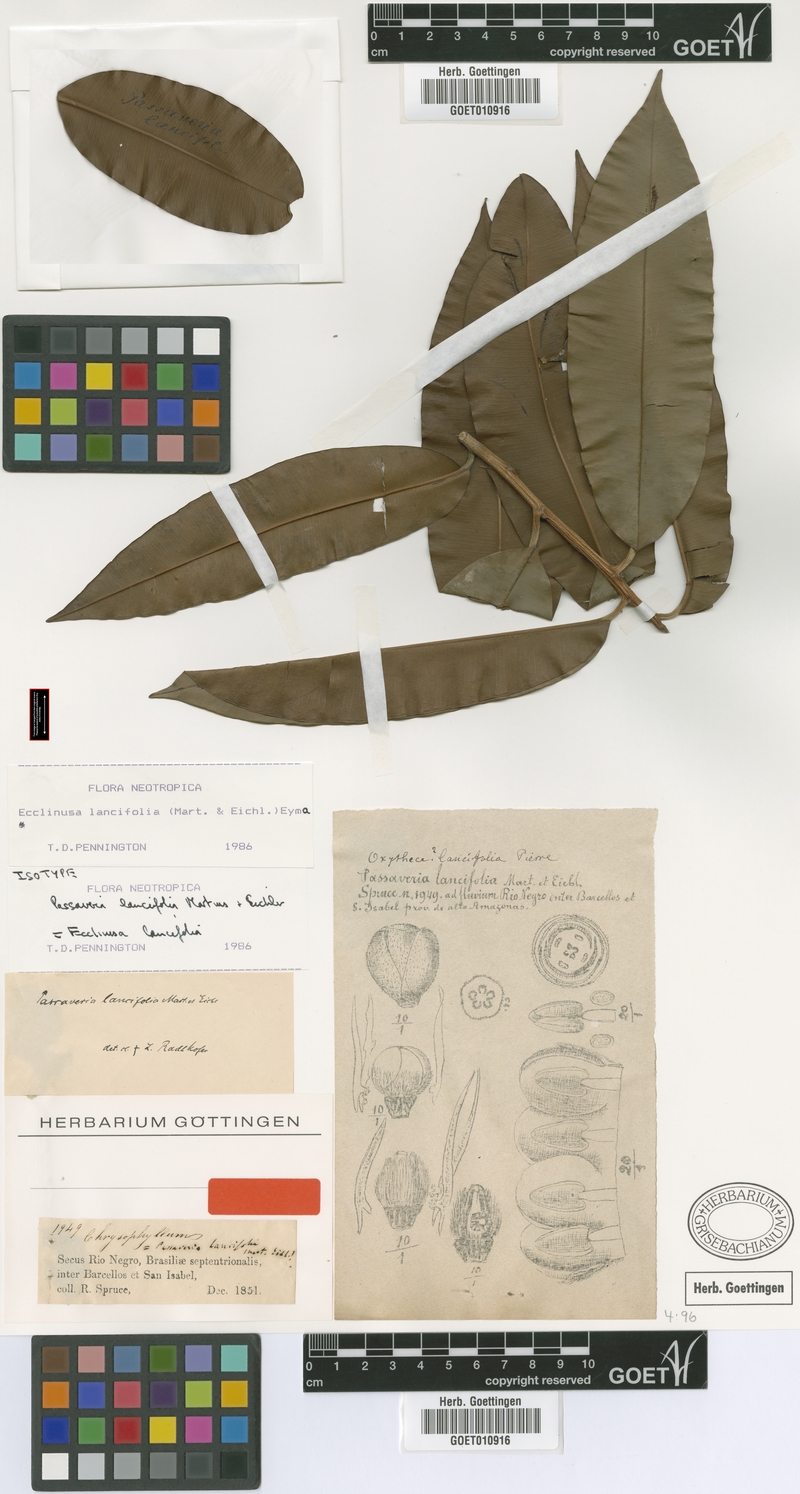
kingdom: Plantae
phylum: Tracheophyta
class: Magnoliopsida
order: Ericales
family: Sapotaceae
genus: Ecclinusa
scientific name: Ecclinusa lancifolia
